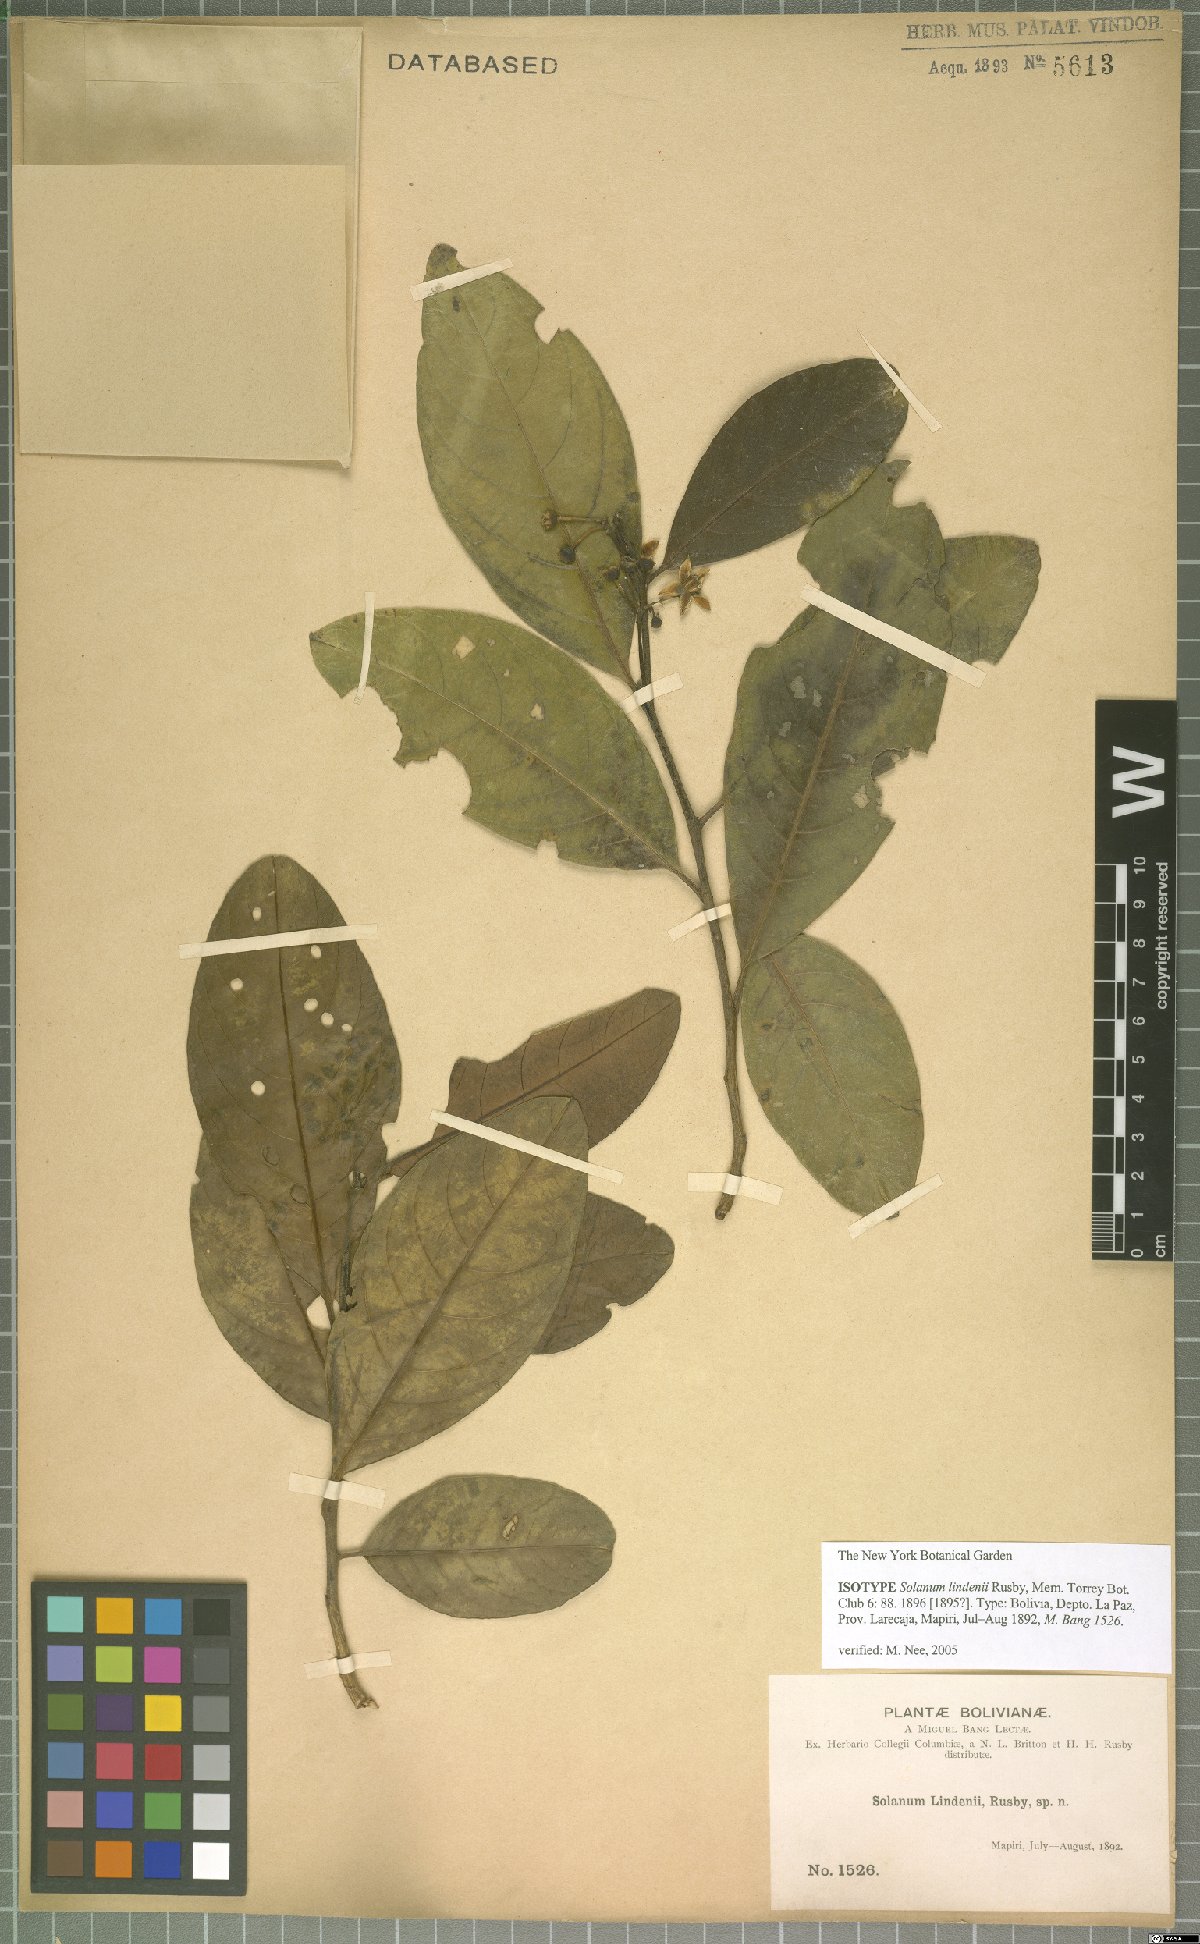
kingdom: Plantae
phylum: Tracheophyta
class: Magnoliopsida
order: Solanales
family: Solanaceae
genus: Solanum
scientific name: Solanum lindenii
